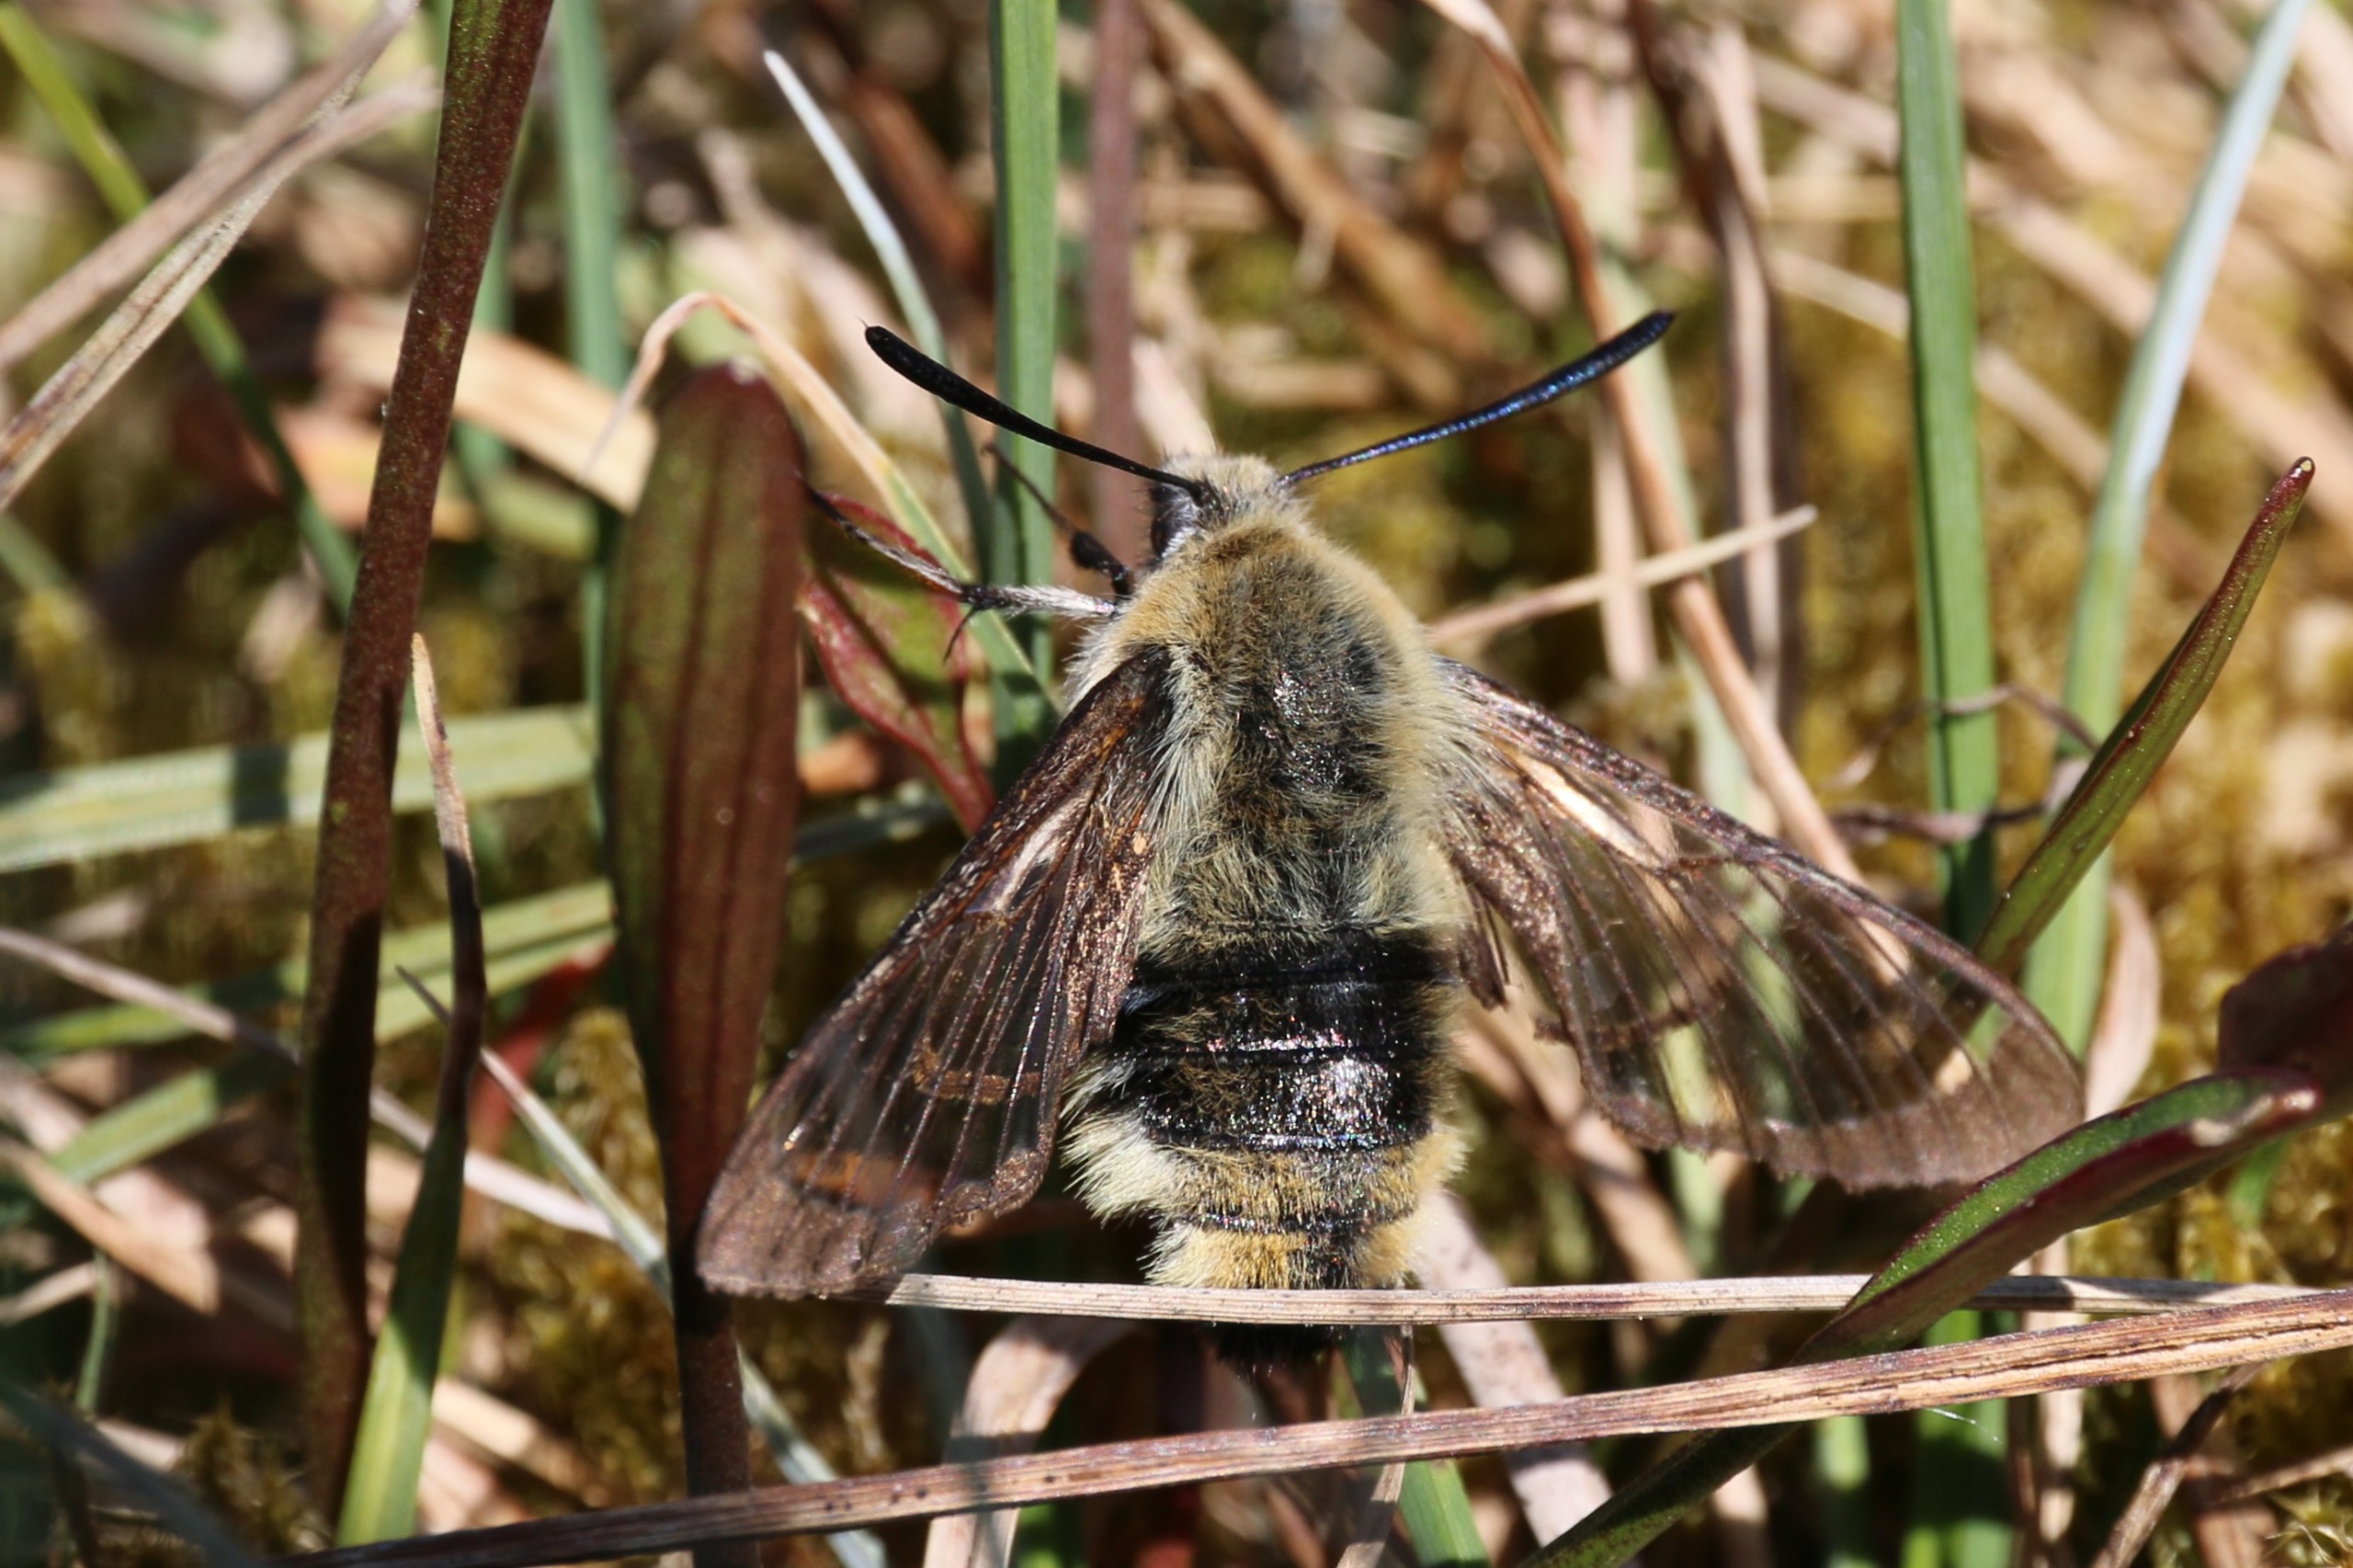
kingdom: Animalia
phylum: Arthropoda
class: Insecta
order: Lepidoptera
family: Sphingidae
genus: Hemaris
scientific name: Hemaris tityus
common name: Smalrandet humlebisværmer
